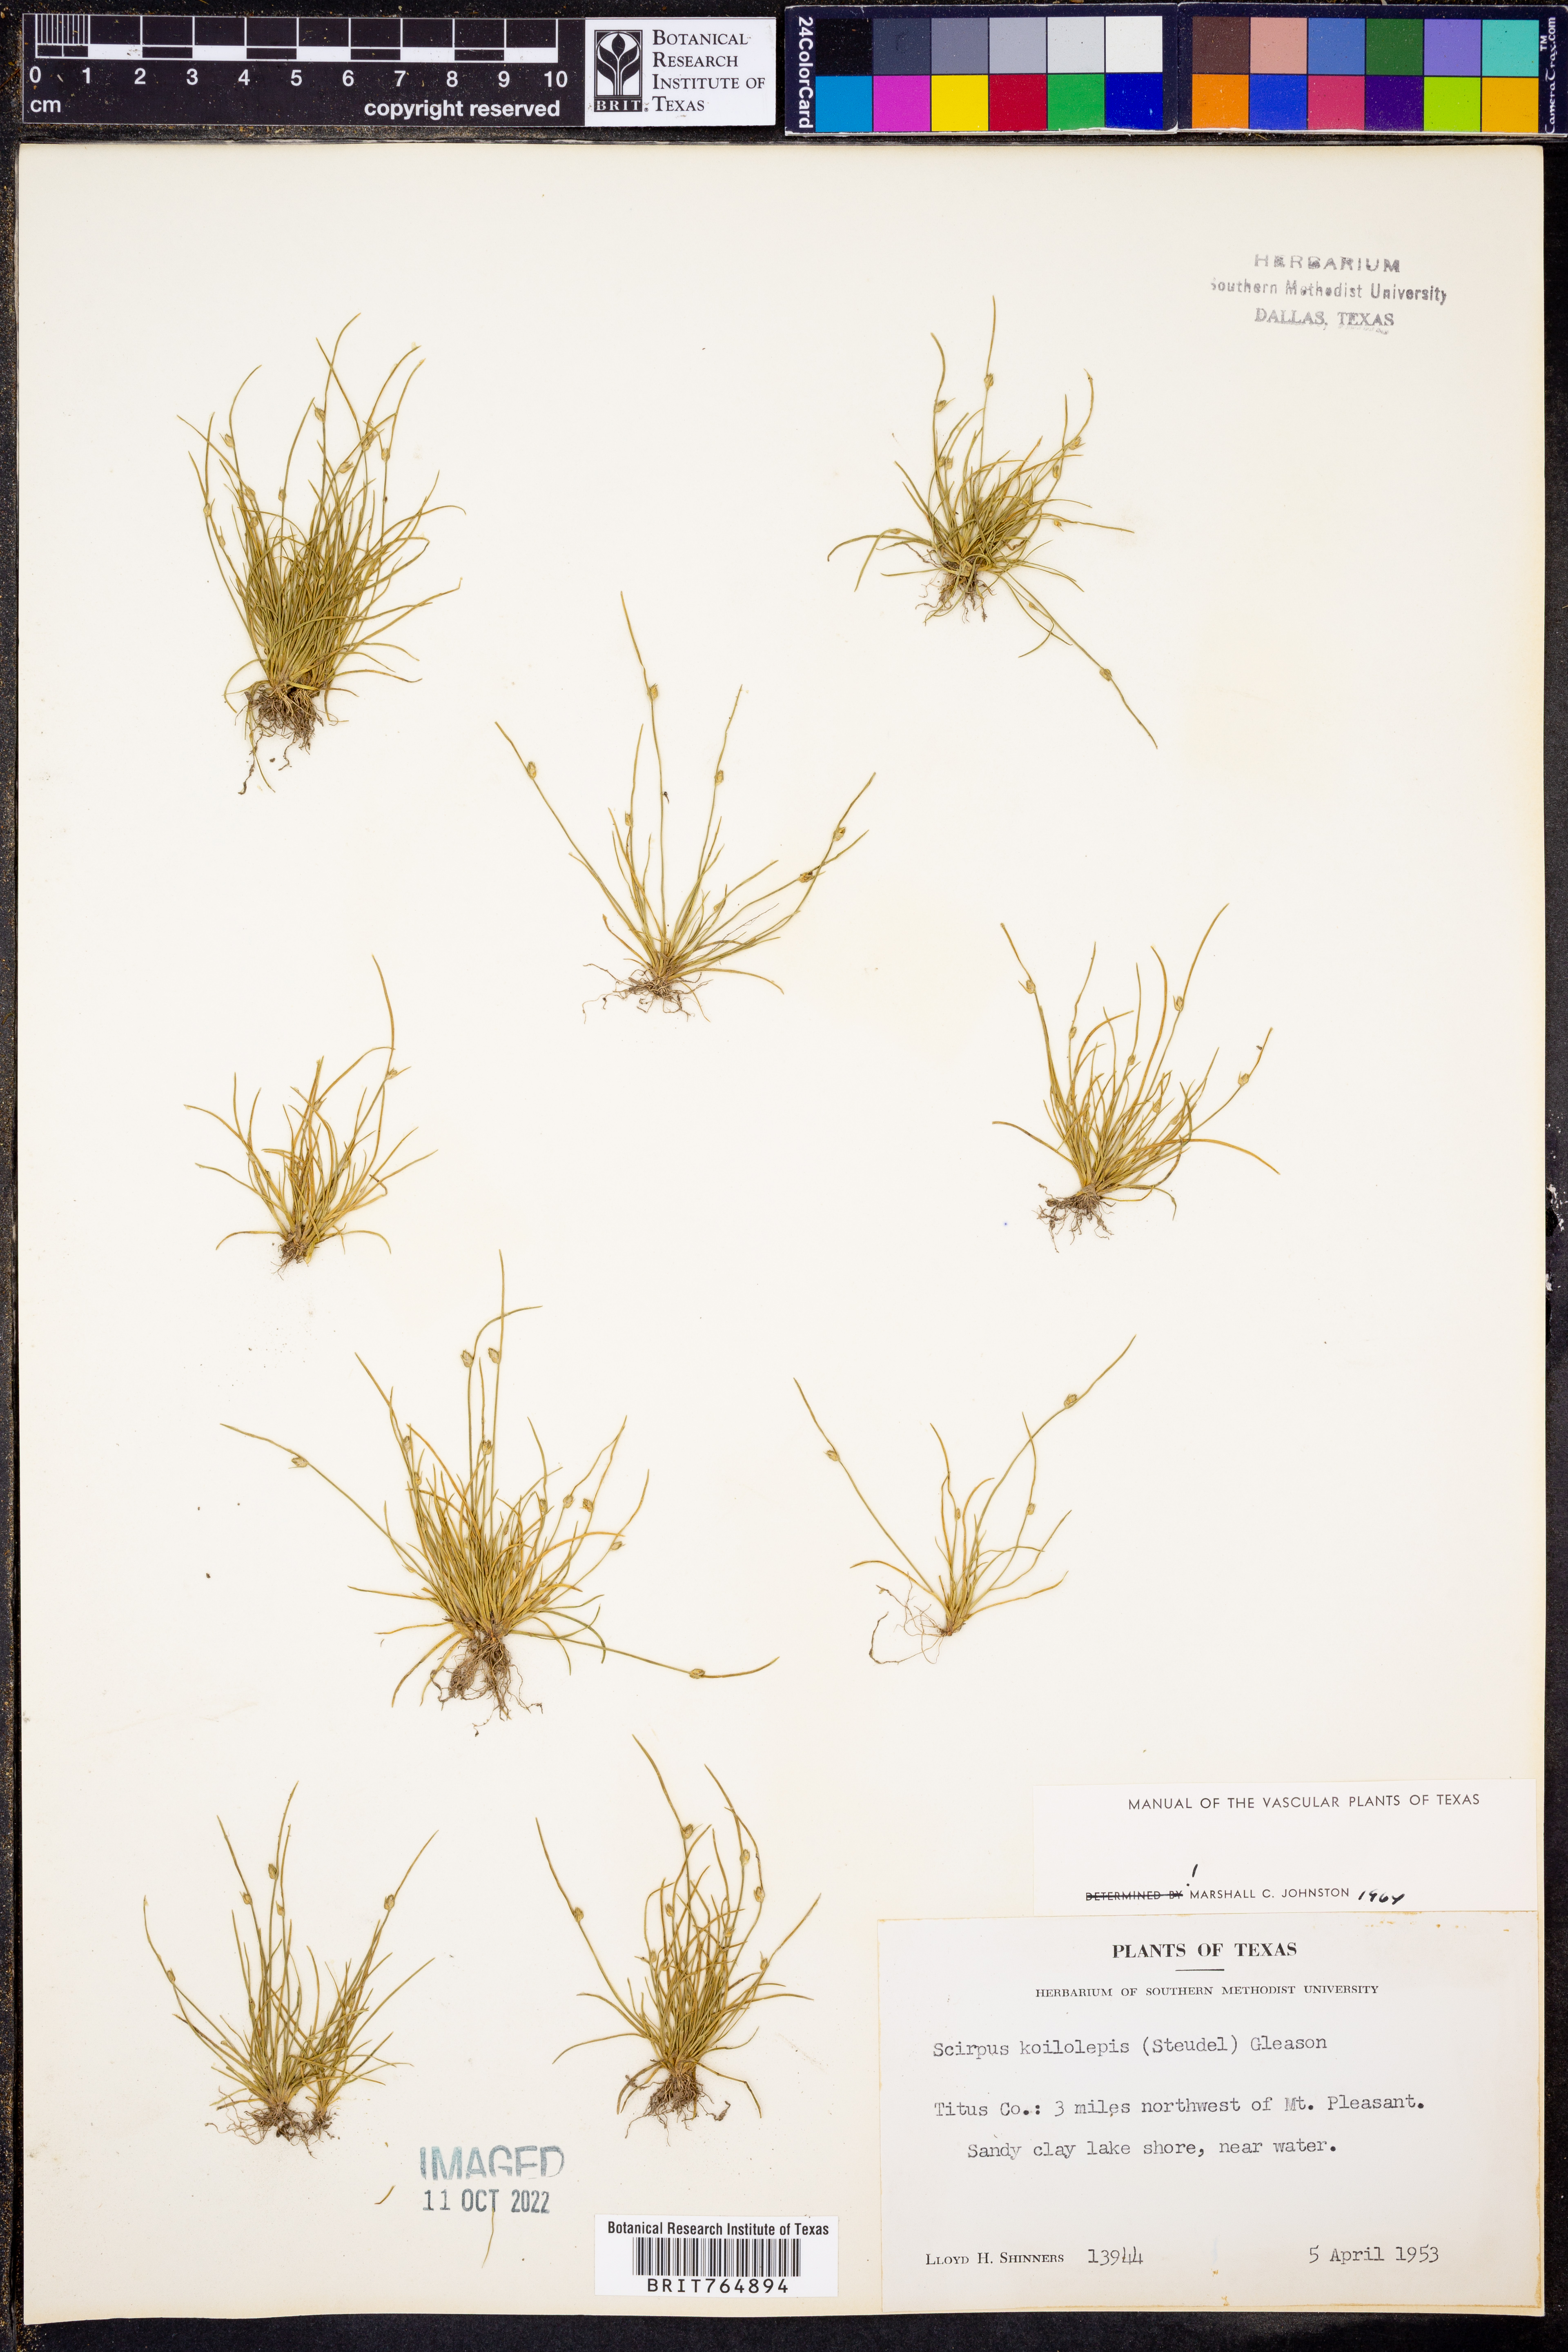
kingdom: Plantae
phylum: Tracheophyta
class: Liliopsida
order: Poales
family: Cyperaceae
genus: Isolepis
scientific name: Isolepis carinata
